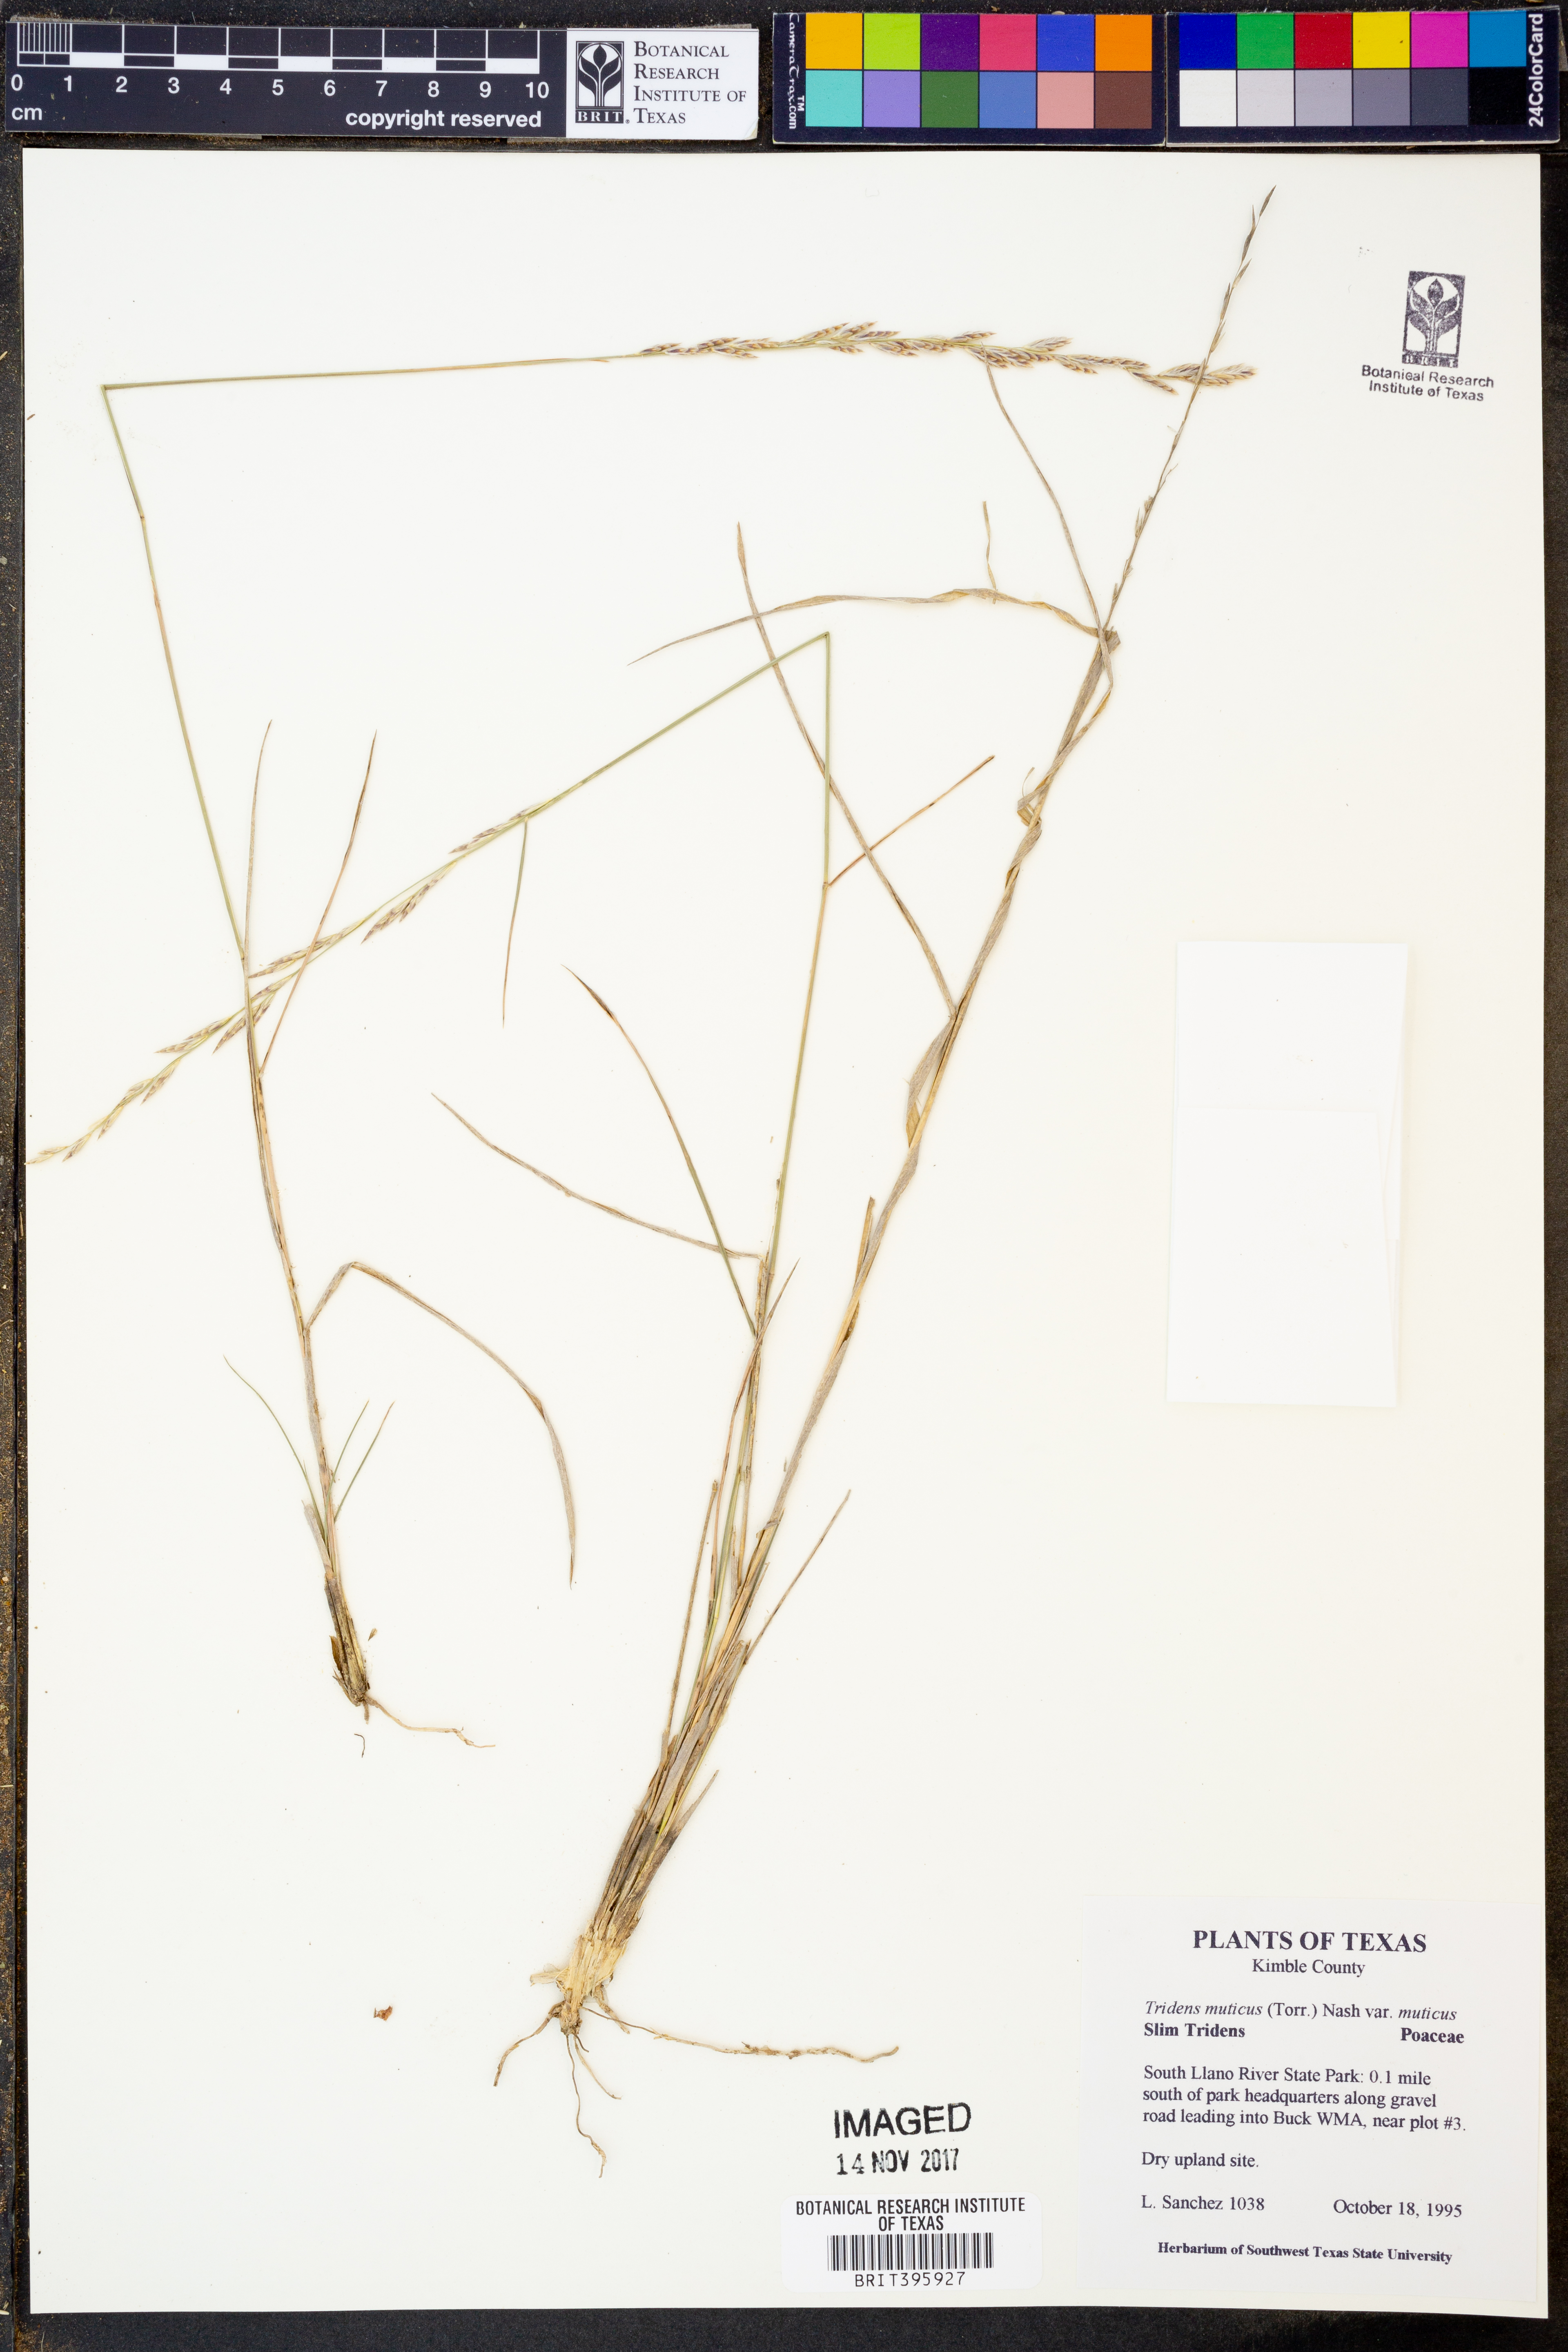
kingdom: Plantae
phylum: Tracheophyta
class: Liliopsida
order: Poales
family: Poaceae
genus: Tridentopsis
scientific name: Tridentopsis mutica
